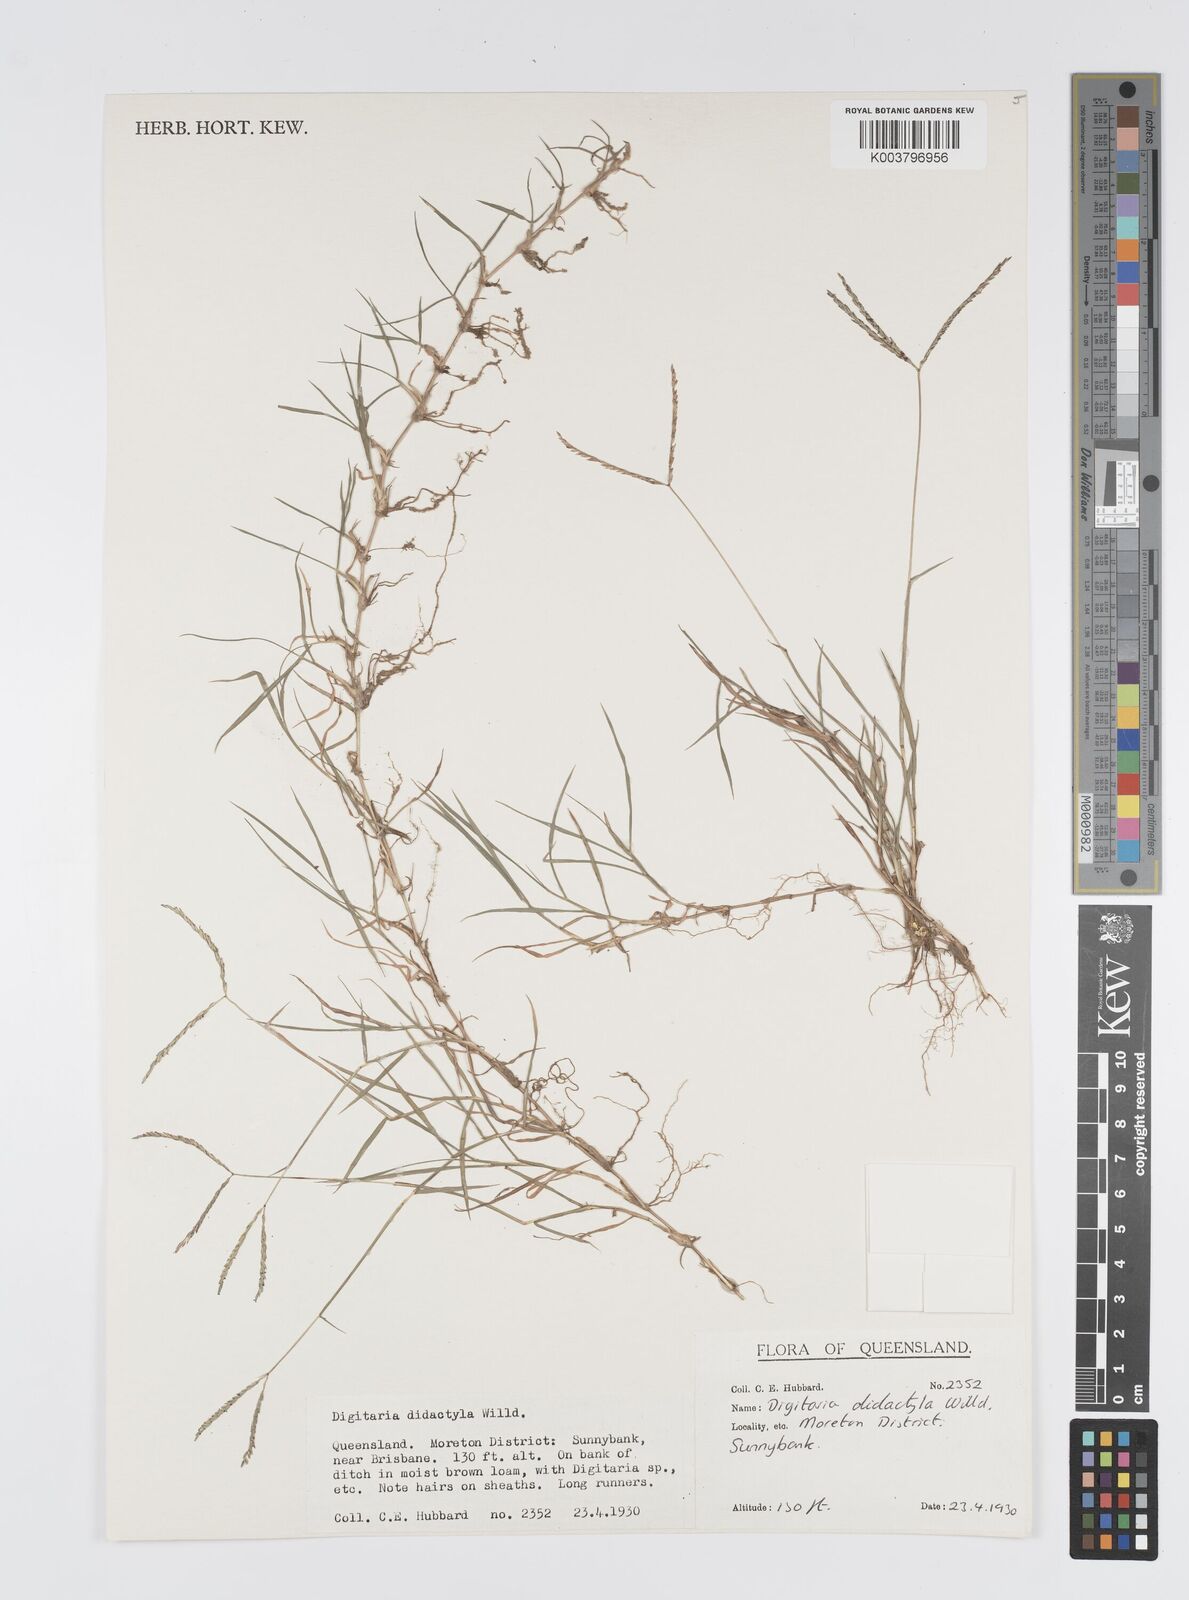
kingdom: Plantae
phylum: Tracheophyta
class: Liliopsida
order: Poales
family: Poaceae
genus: Digitaria
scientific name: Digitaria didactyla
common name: Blue couch
